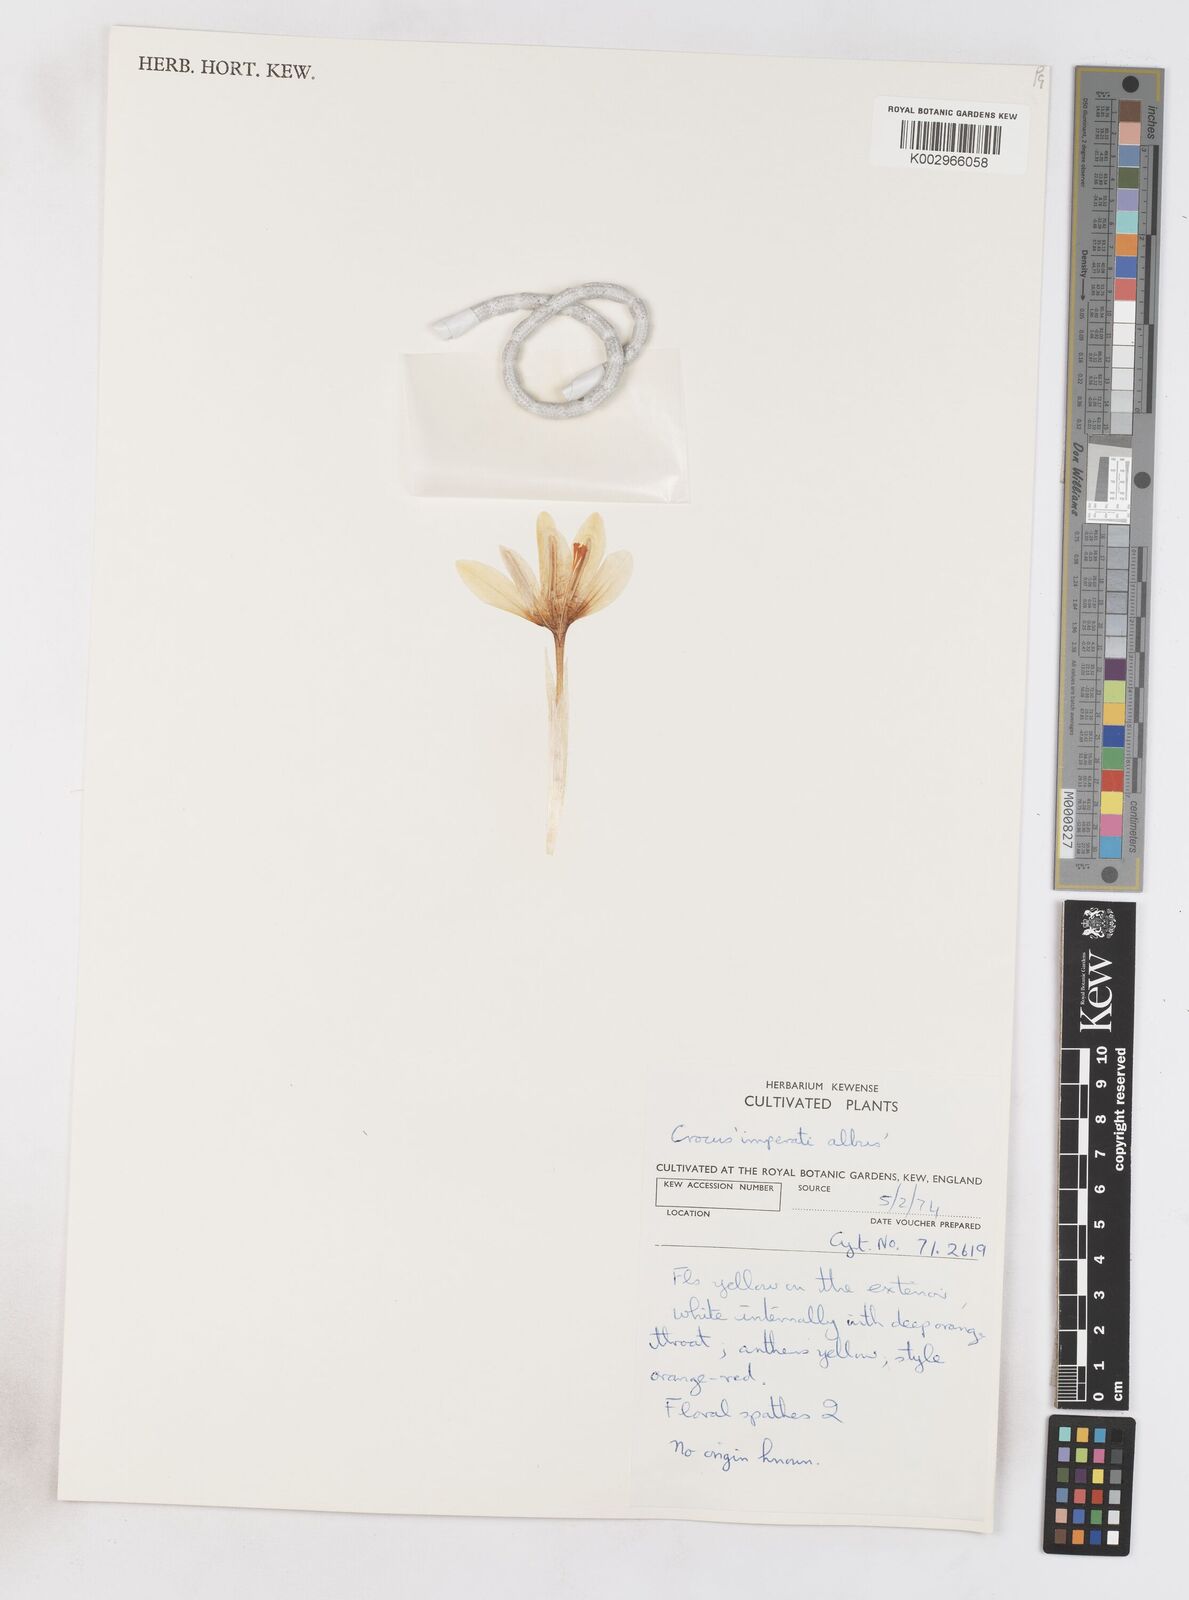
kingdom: Plantae
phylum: Tracheophyta
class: Liliopsida
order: Asparagales
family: Iridaceae
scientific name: Iridaceae
